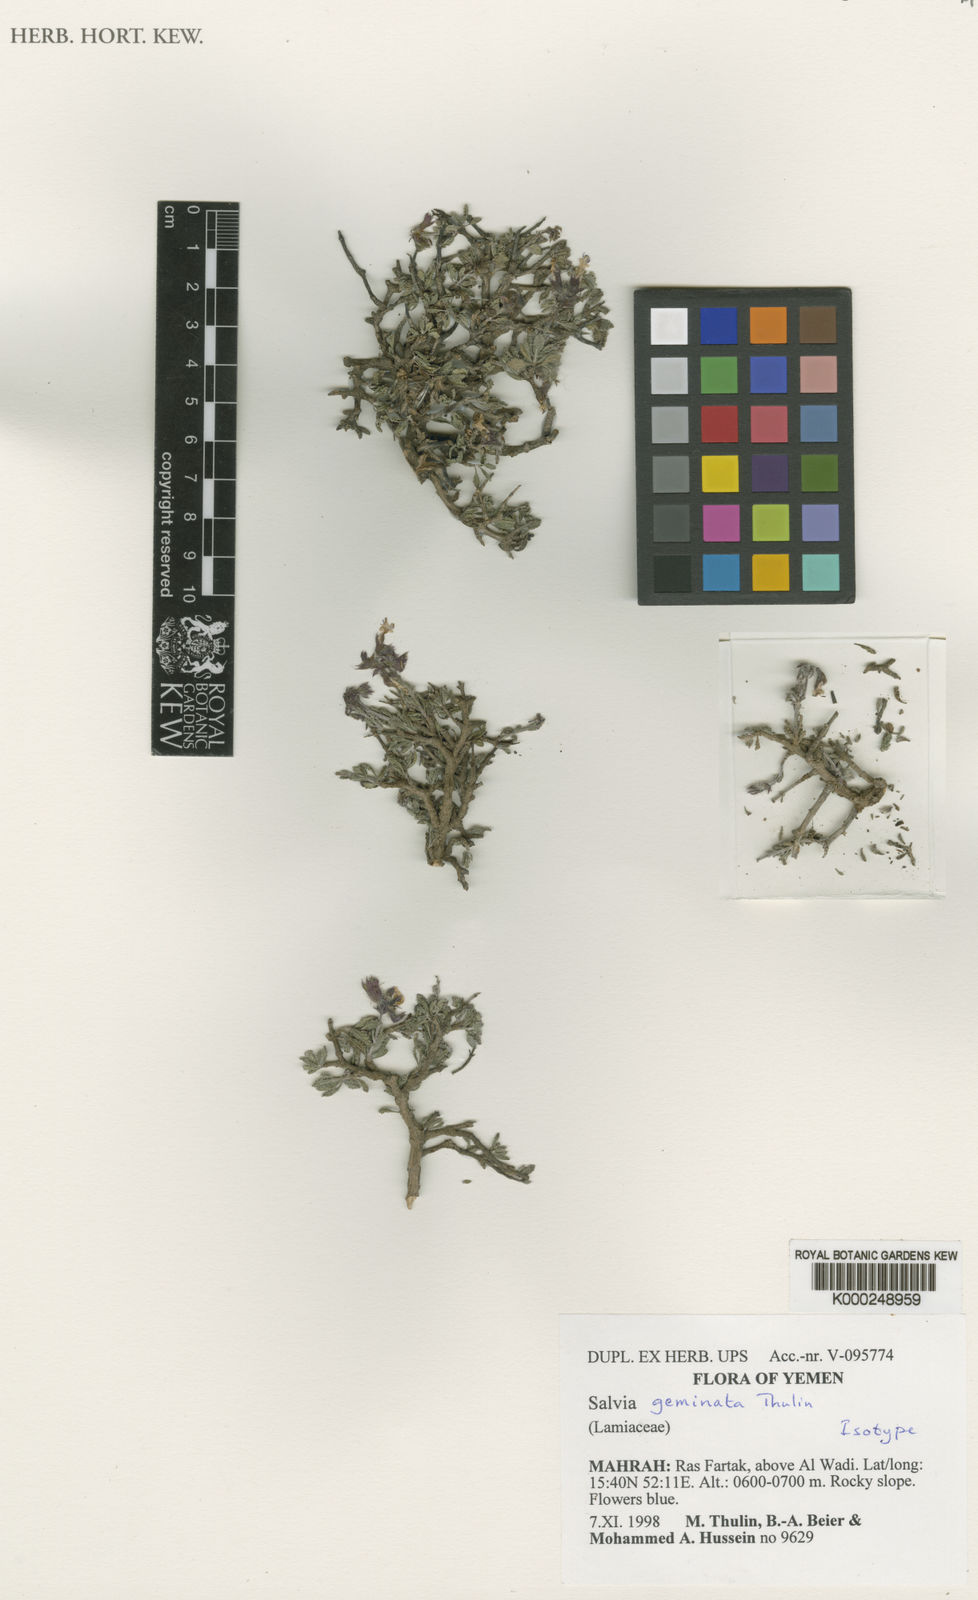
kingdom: Plantae
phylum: Tracheophyta
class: Magnoliopsida
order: Lamiales
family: Lamiaceae
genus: Salvia
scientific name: Salvia
